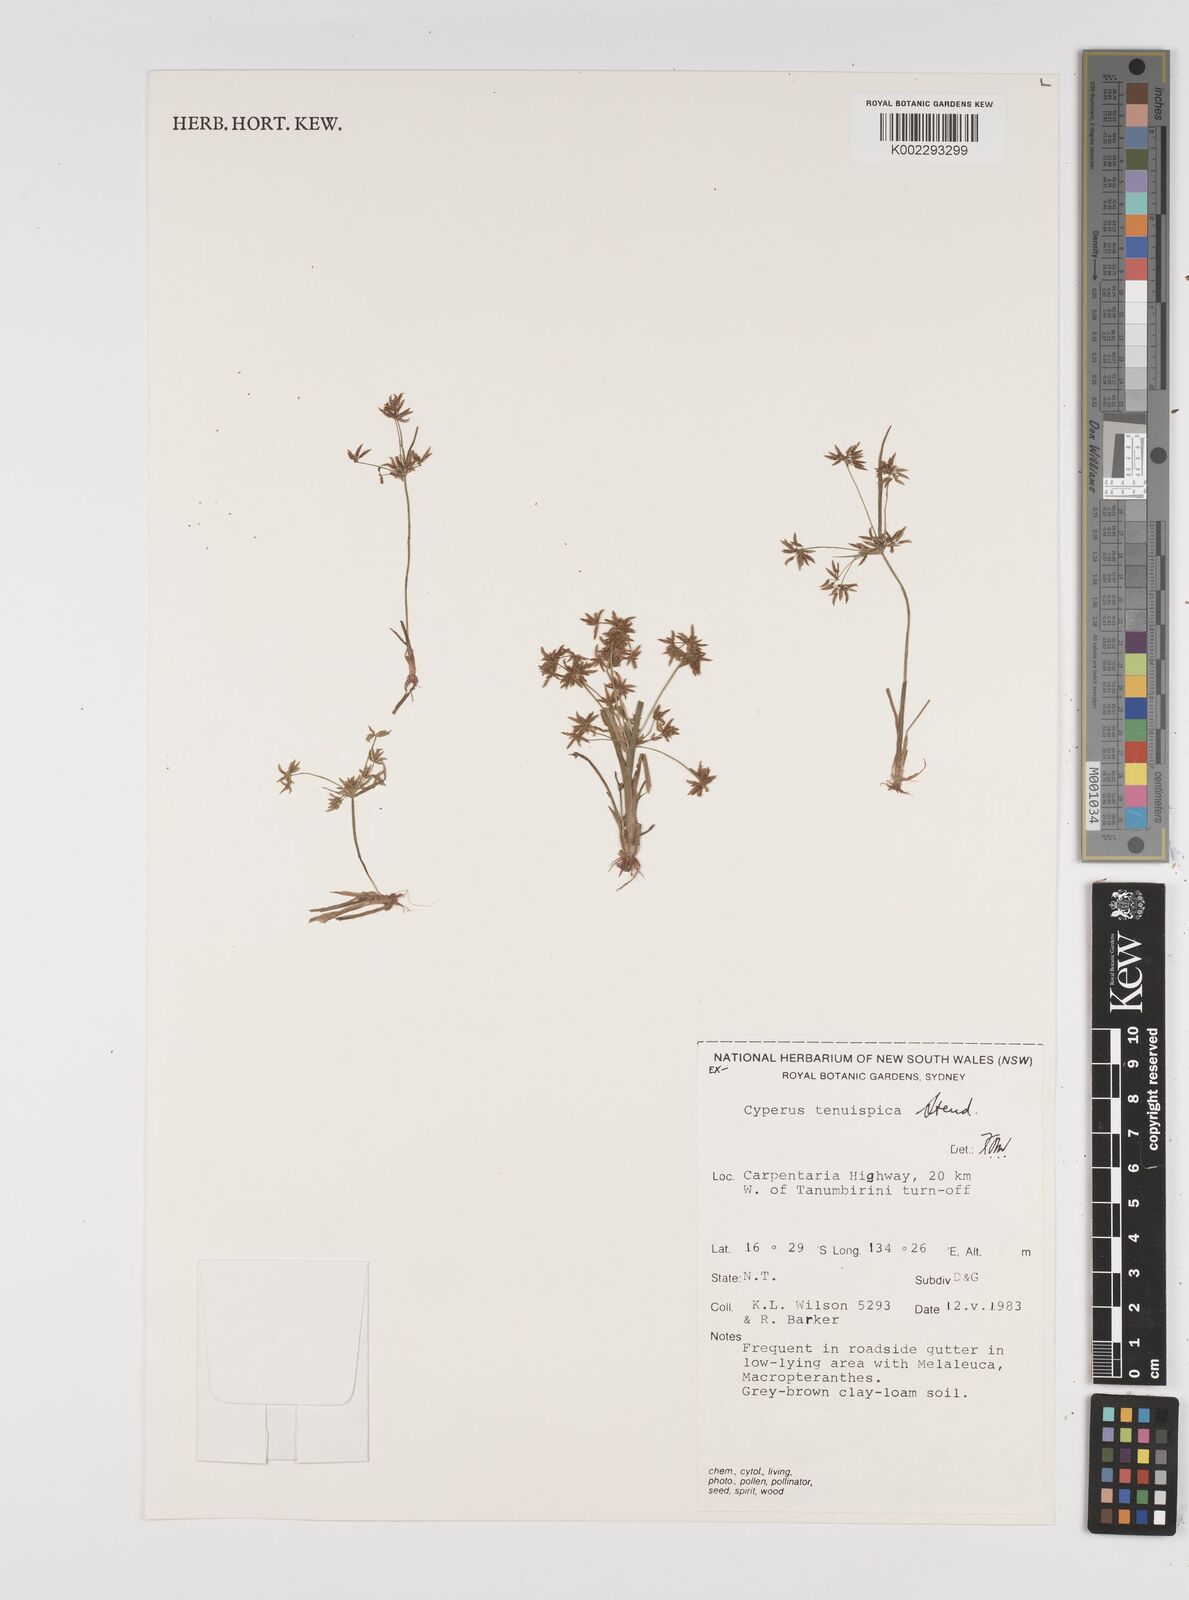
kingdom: Plantae
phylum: Tracheophyta
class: Liliopsida
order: Poales
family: Cyperaceae
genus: Cyperus
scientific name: Cyperus tenuispica
